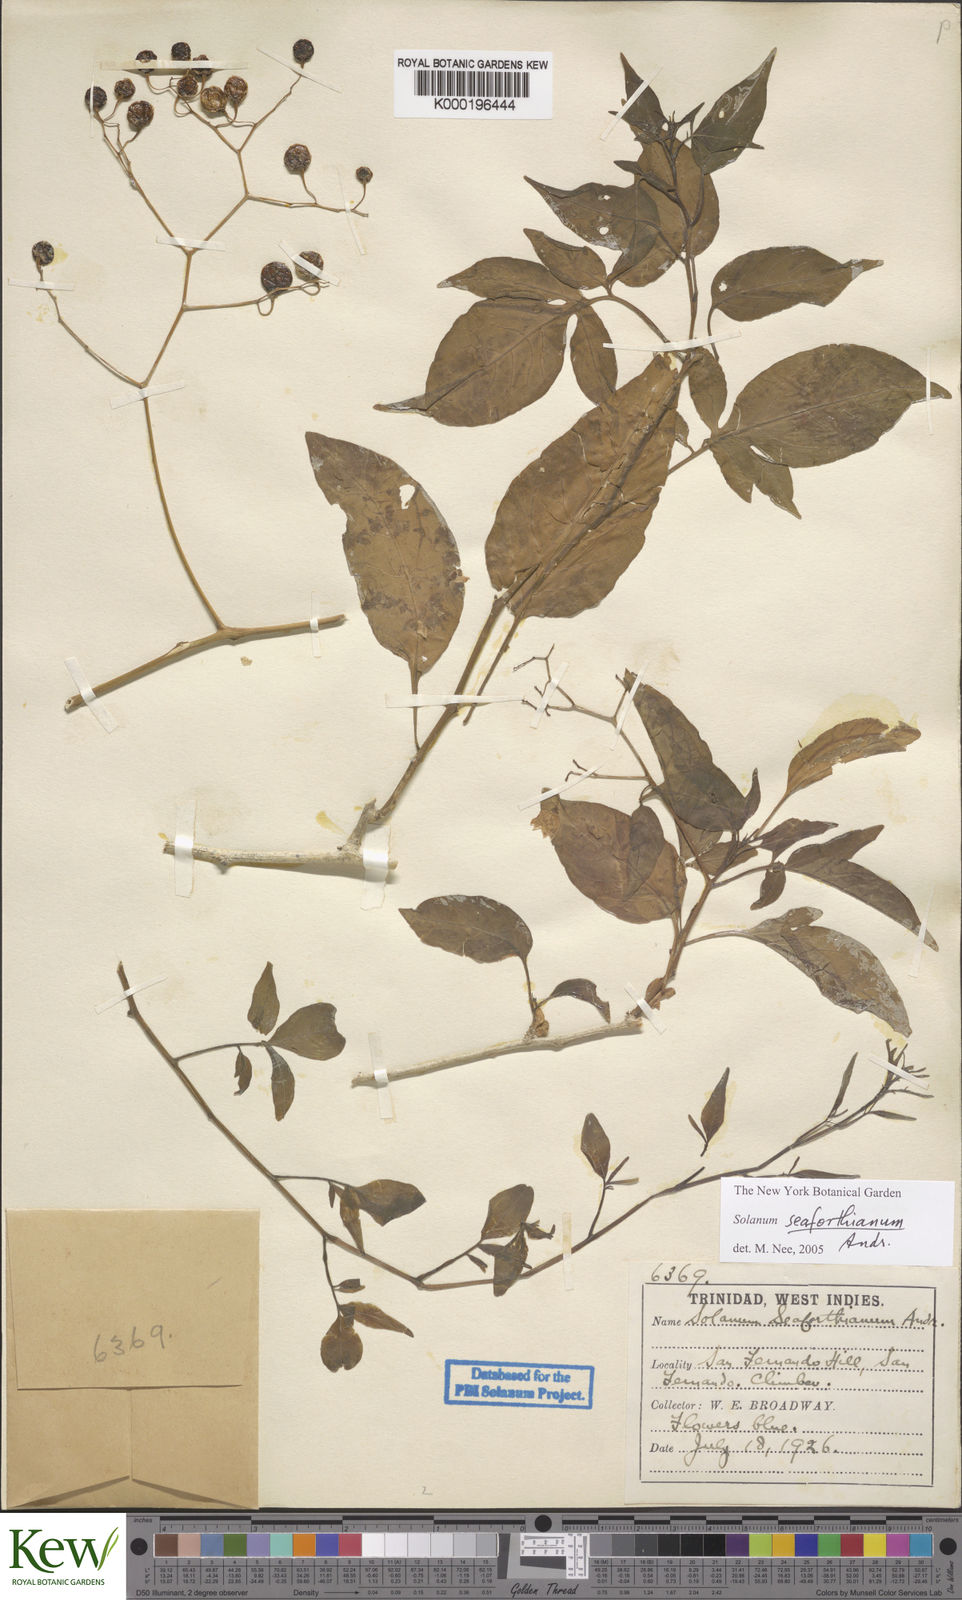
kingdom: Plantae
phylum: Tracheophyta
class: Magnoliopsida
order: Solanales
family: Solanaceae
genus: Solanum
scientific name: Solanum seaforthianum
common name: Brazilian nightshade
